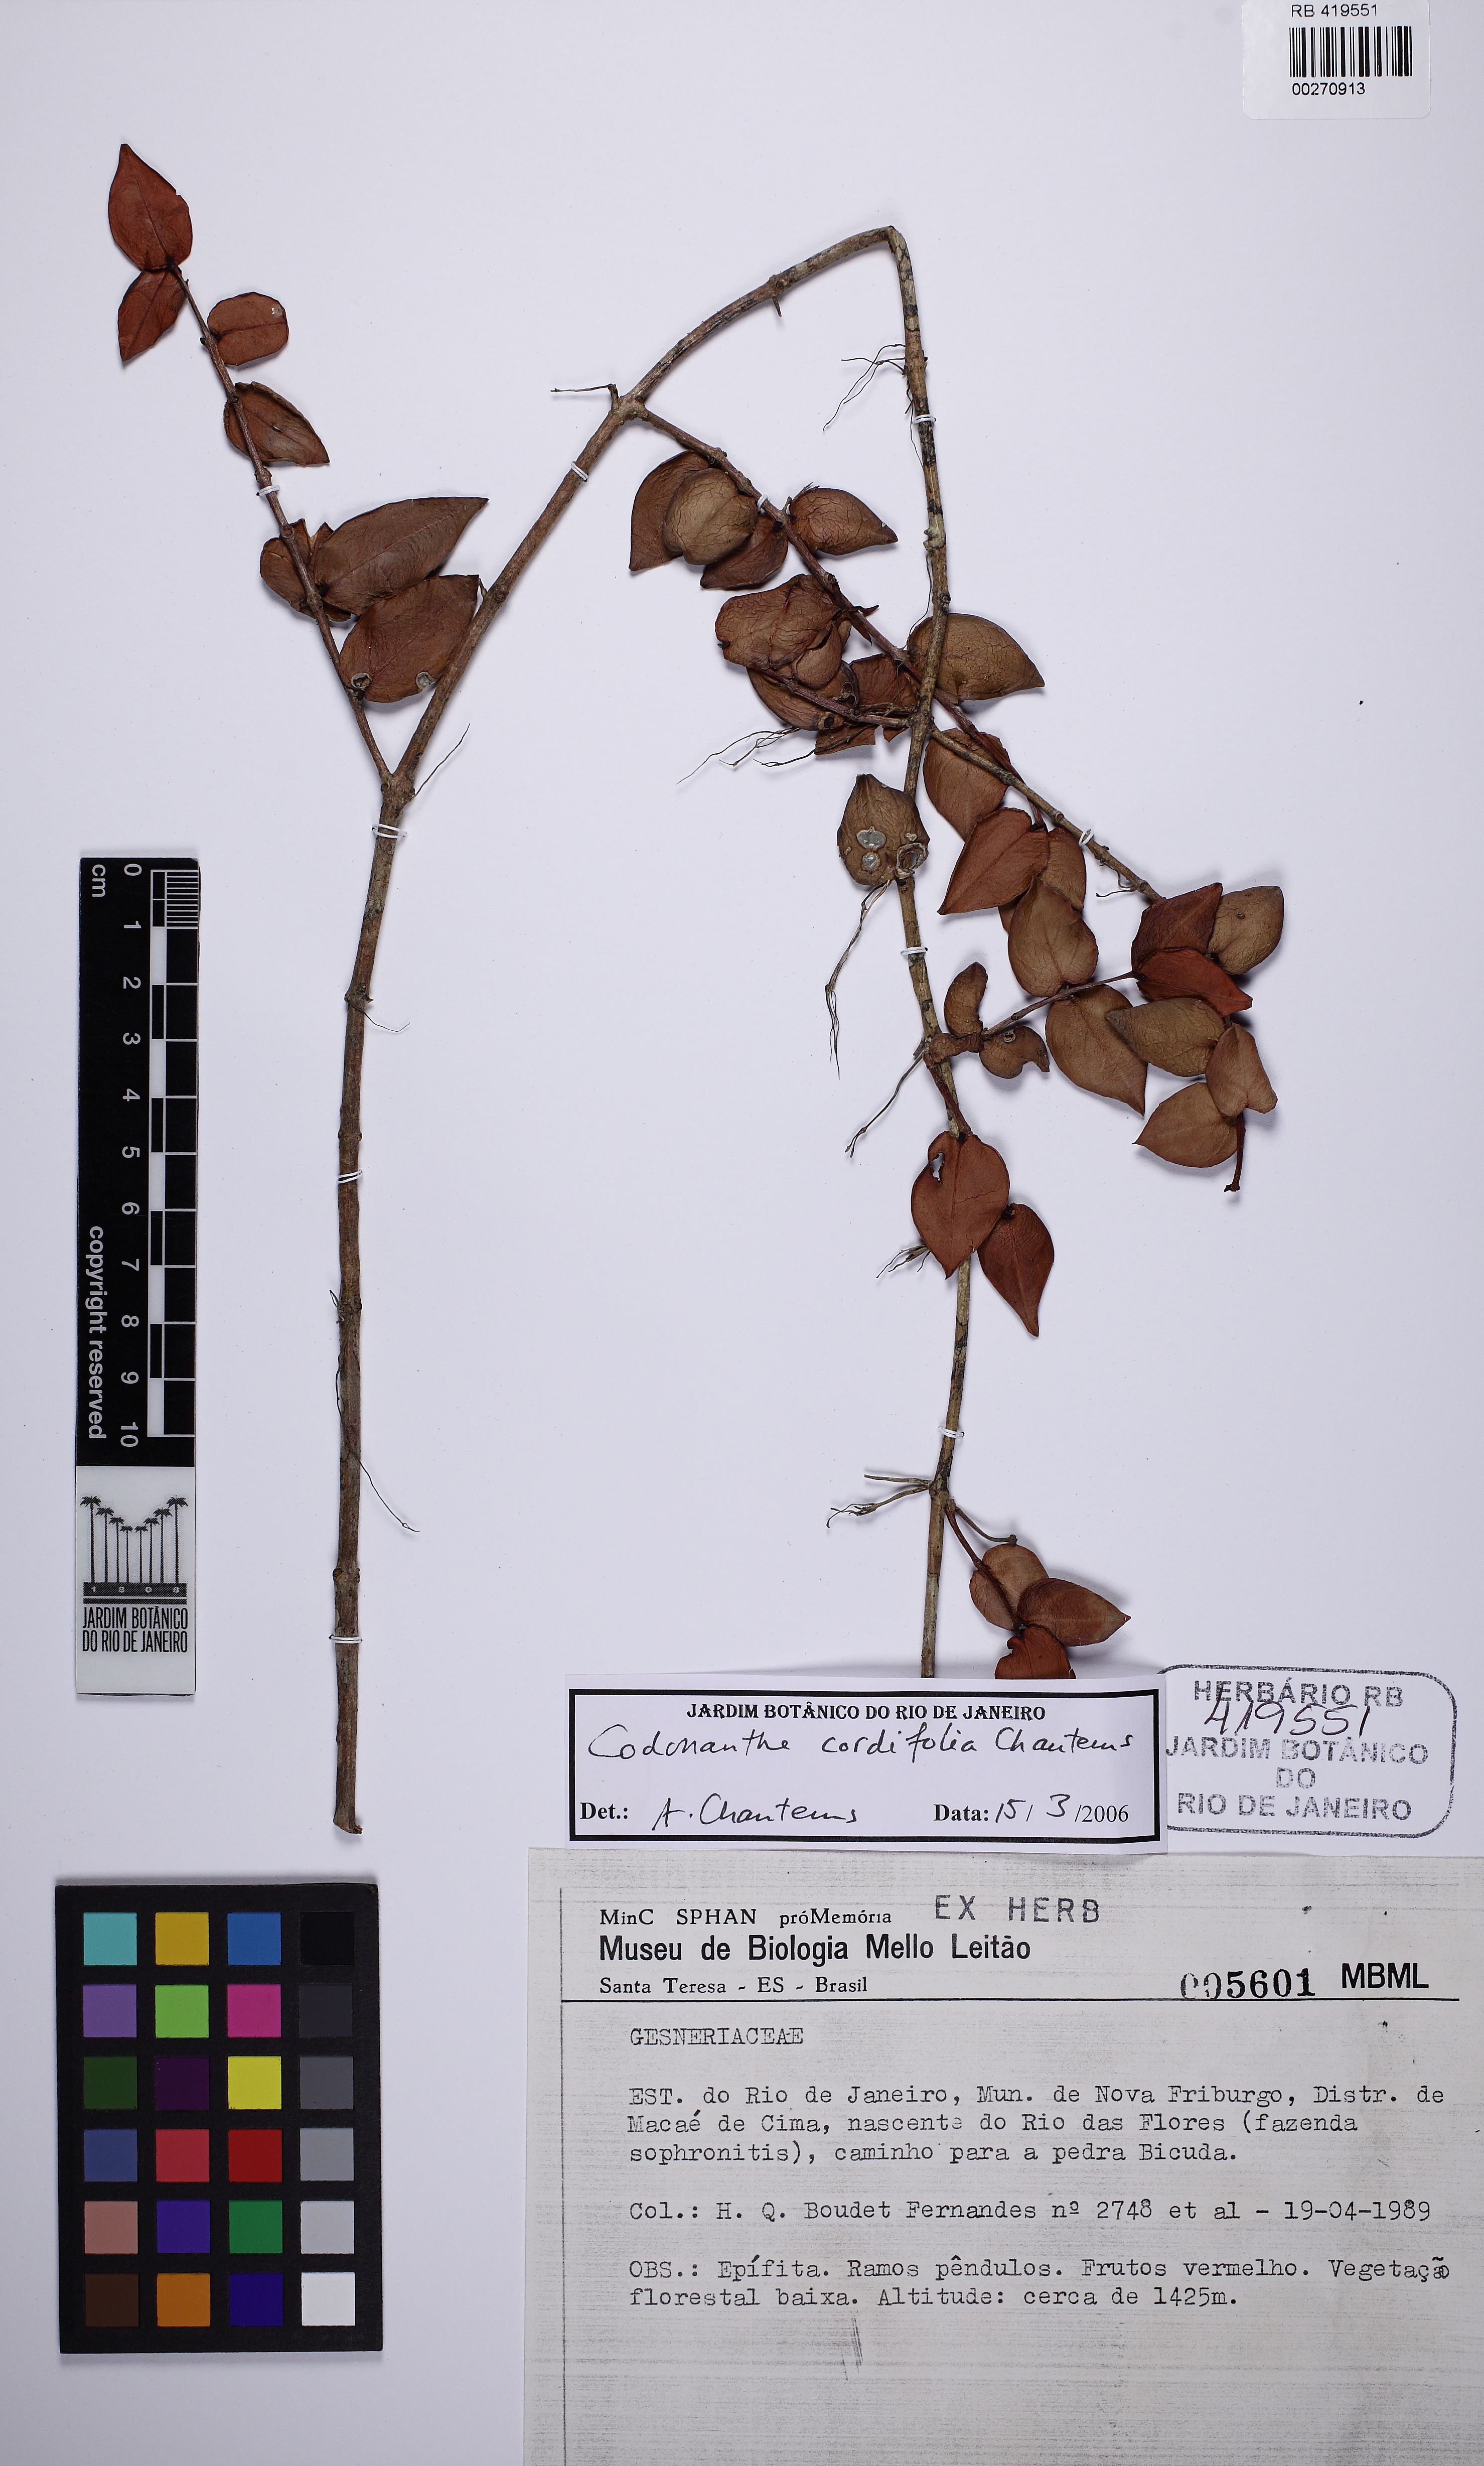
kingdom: Plantae
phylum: Tracheophyta
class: Magnoliopsida
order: Lamiales
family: Gesneriaceae
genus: Codonanthe
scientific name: Codonanthe cordifolia
